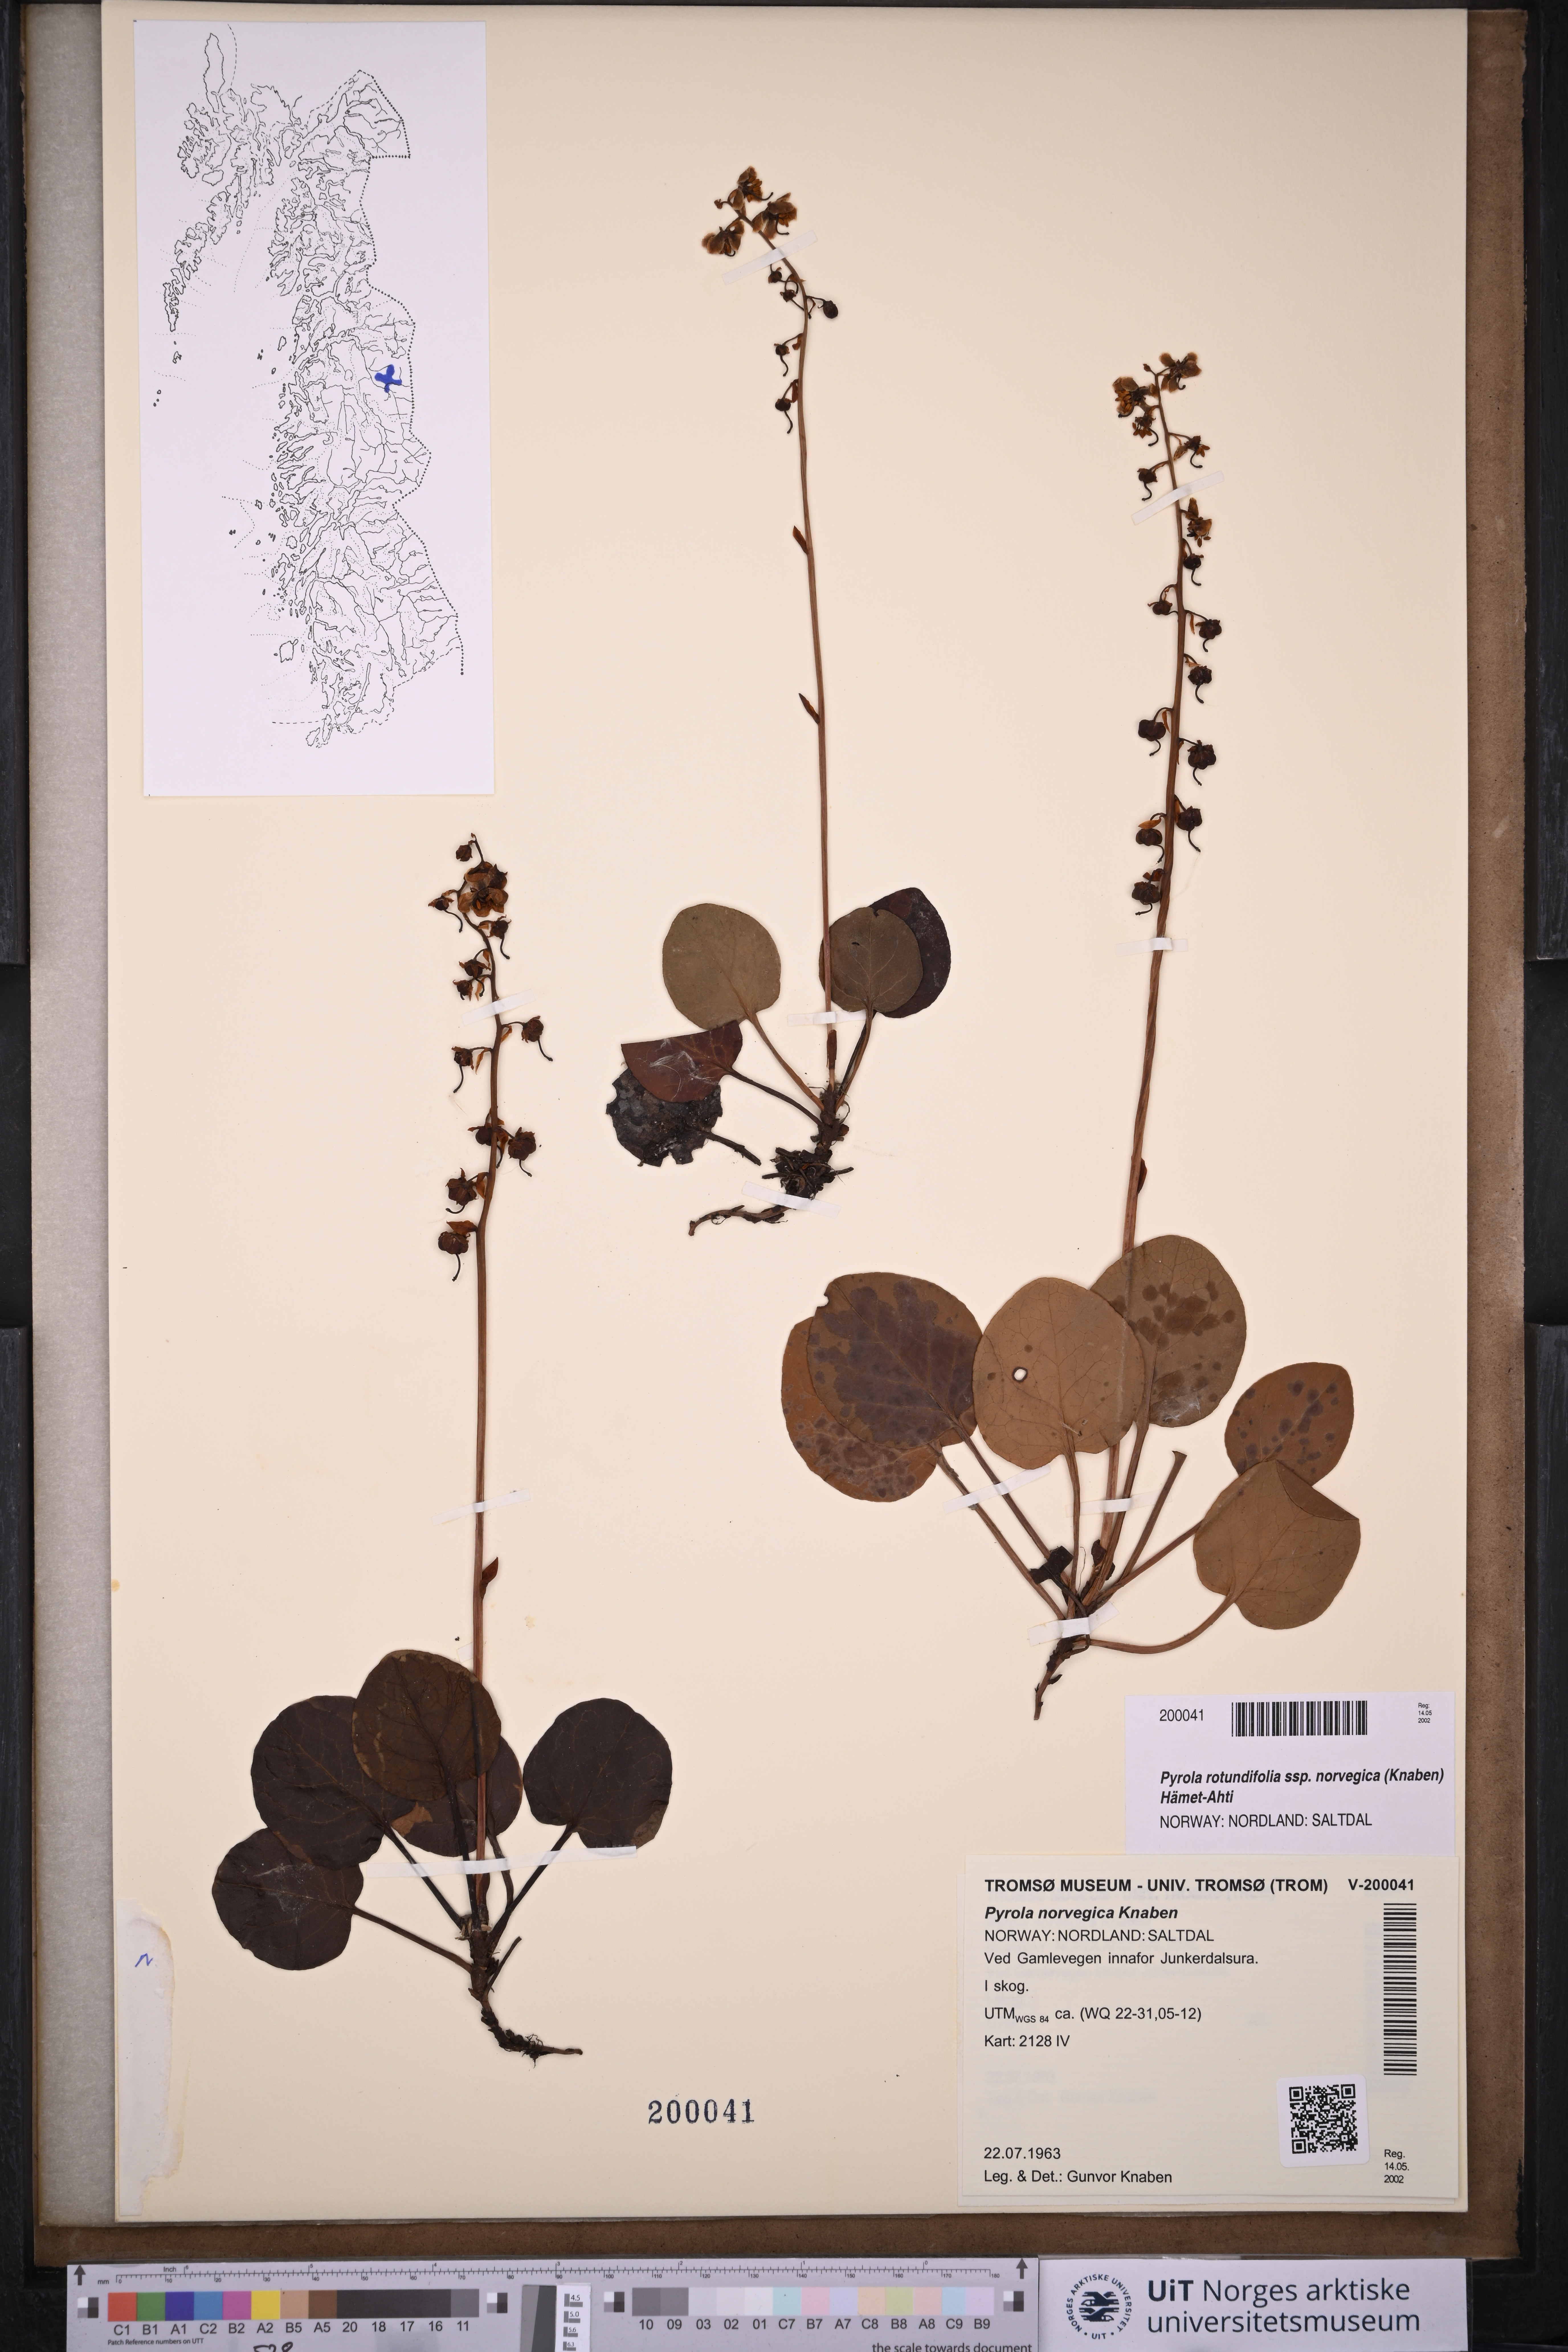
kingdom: Plantae
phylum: Tracheophyta
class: Magnoliopsida
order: Ericales
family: Ericaceae
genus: Pyrola
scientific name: Pyrola rotundifolia
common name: Round-leaved wintergreen
